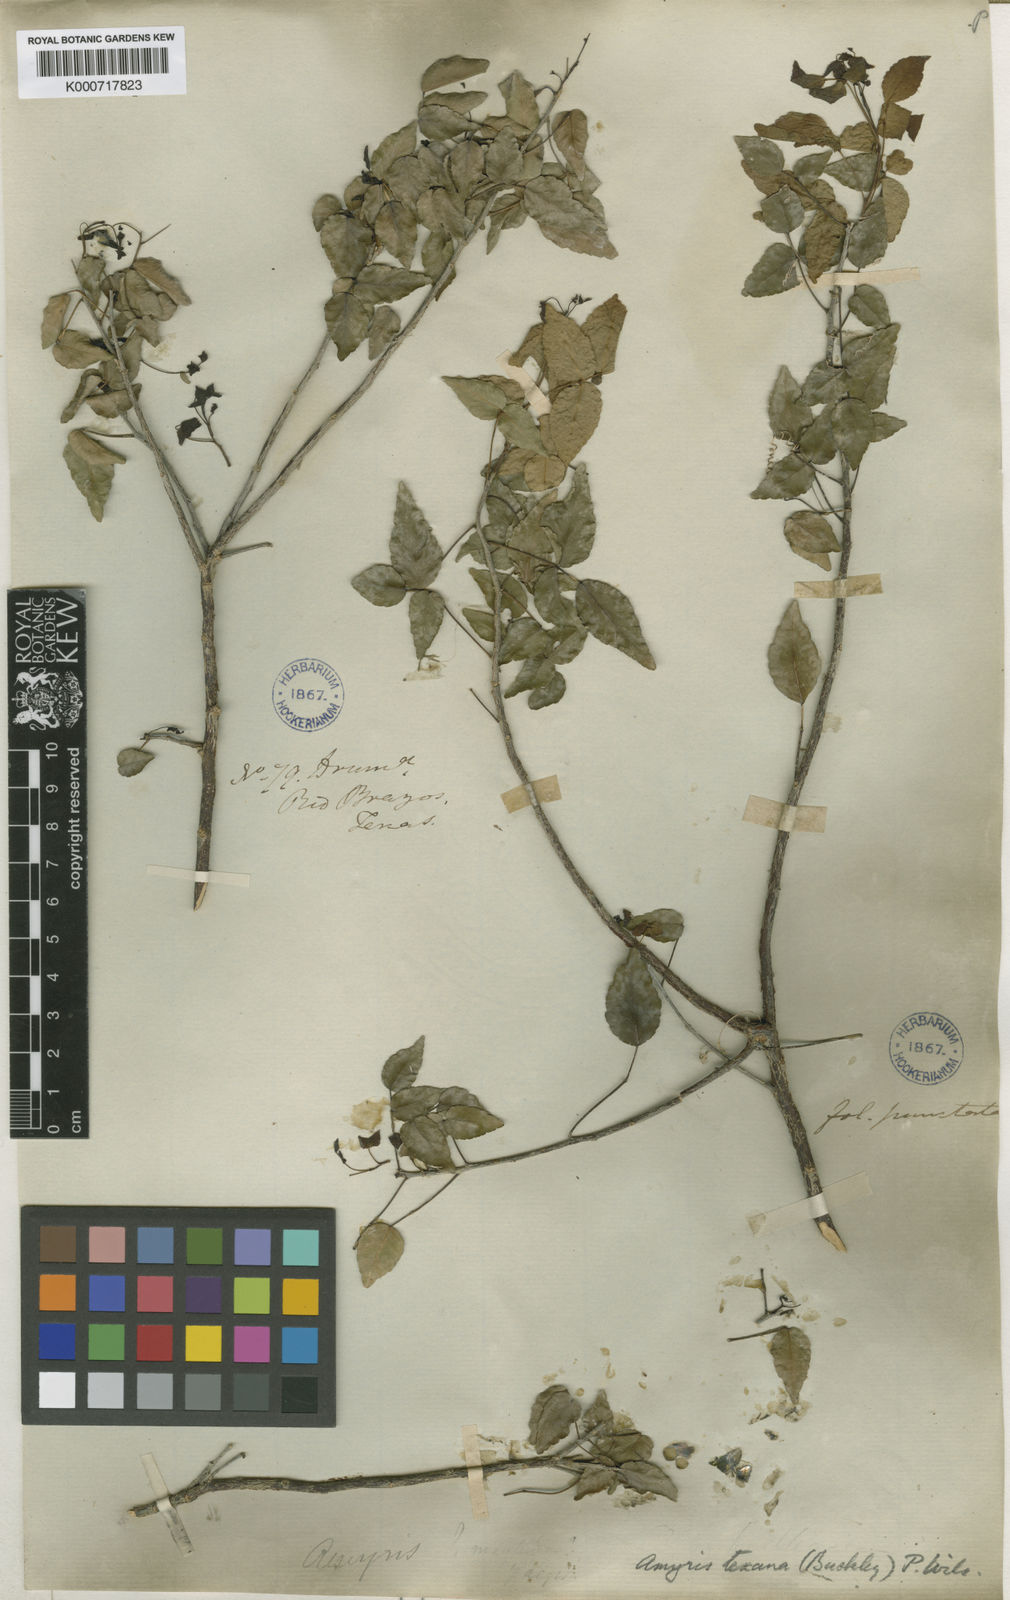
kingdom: Plantae
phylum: Tracheophyta
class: Magnoliopsida
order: Sapindales
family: Rutaceae
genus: Amyris
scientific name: Amyris texana
